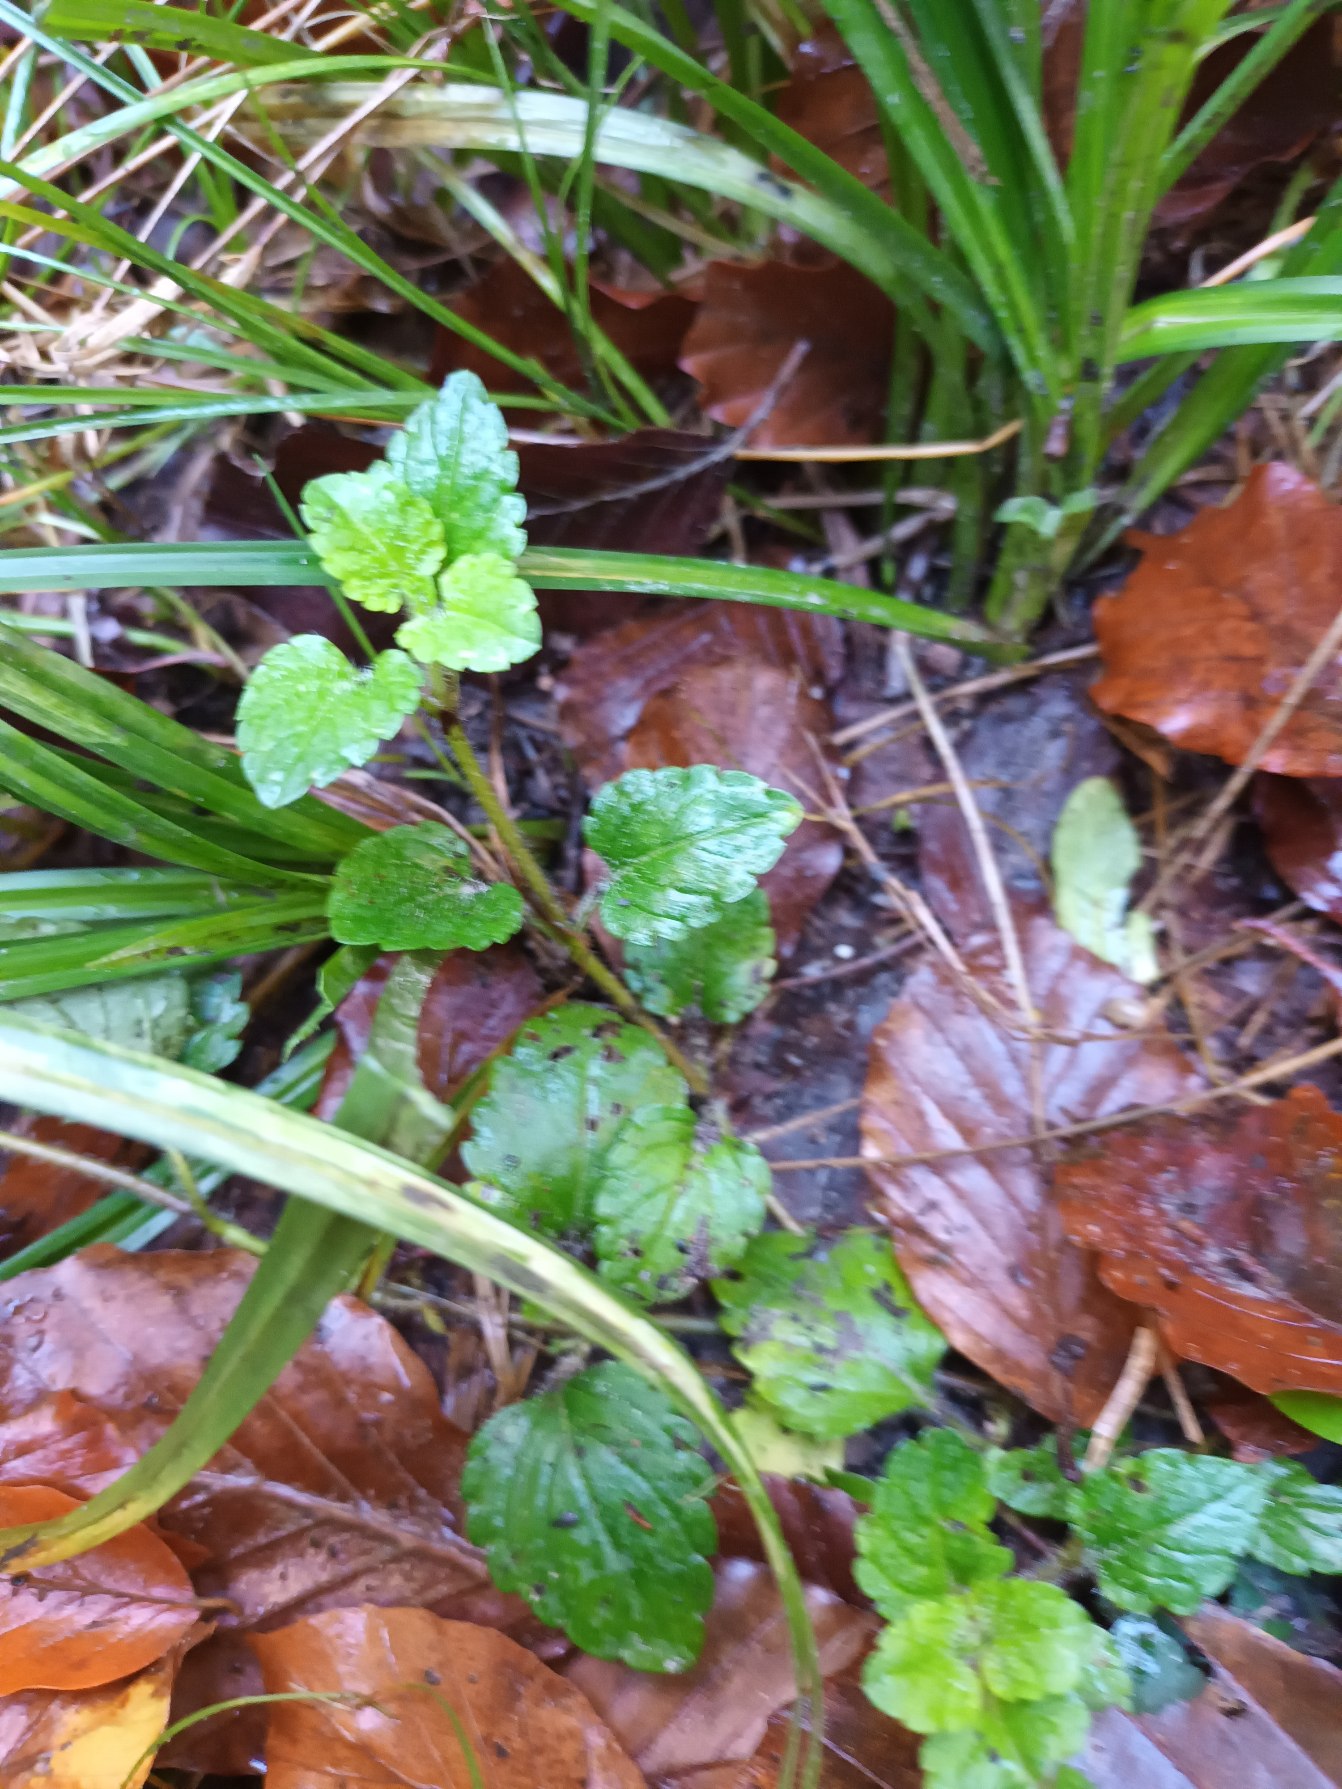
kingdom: Plantae
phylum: Tracheophyta
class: Magnoliopsida
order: Lamiales
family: Plantaginaceae
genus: Veronica
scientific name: Veronica montana
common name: Bjerg-ærenpris
